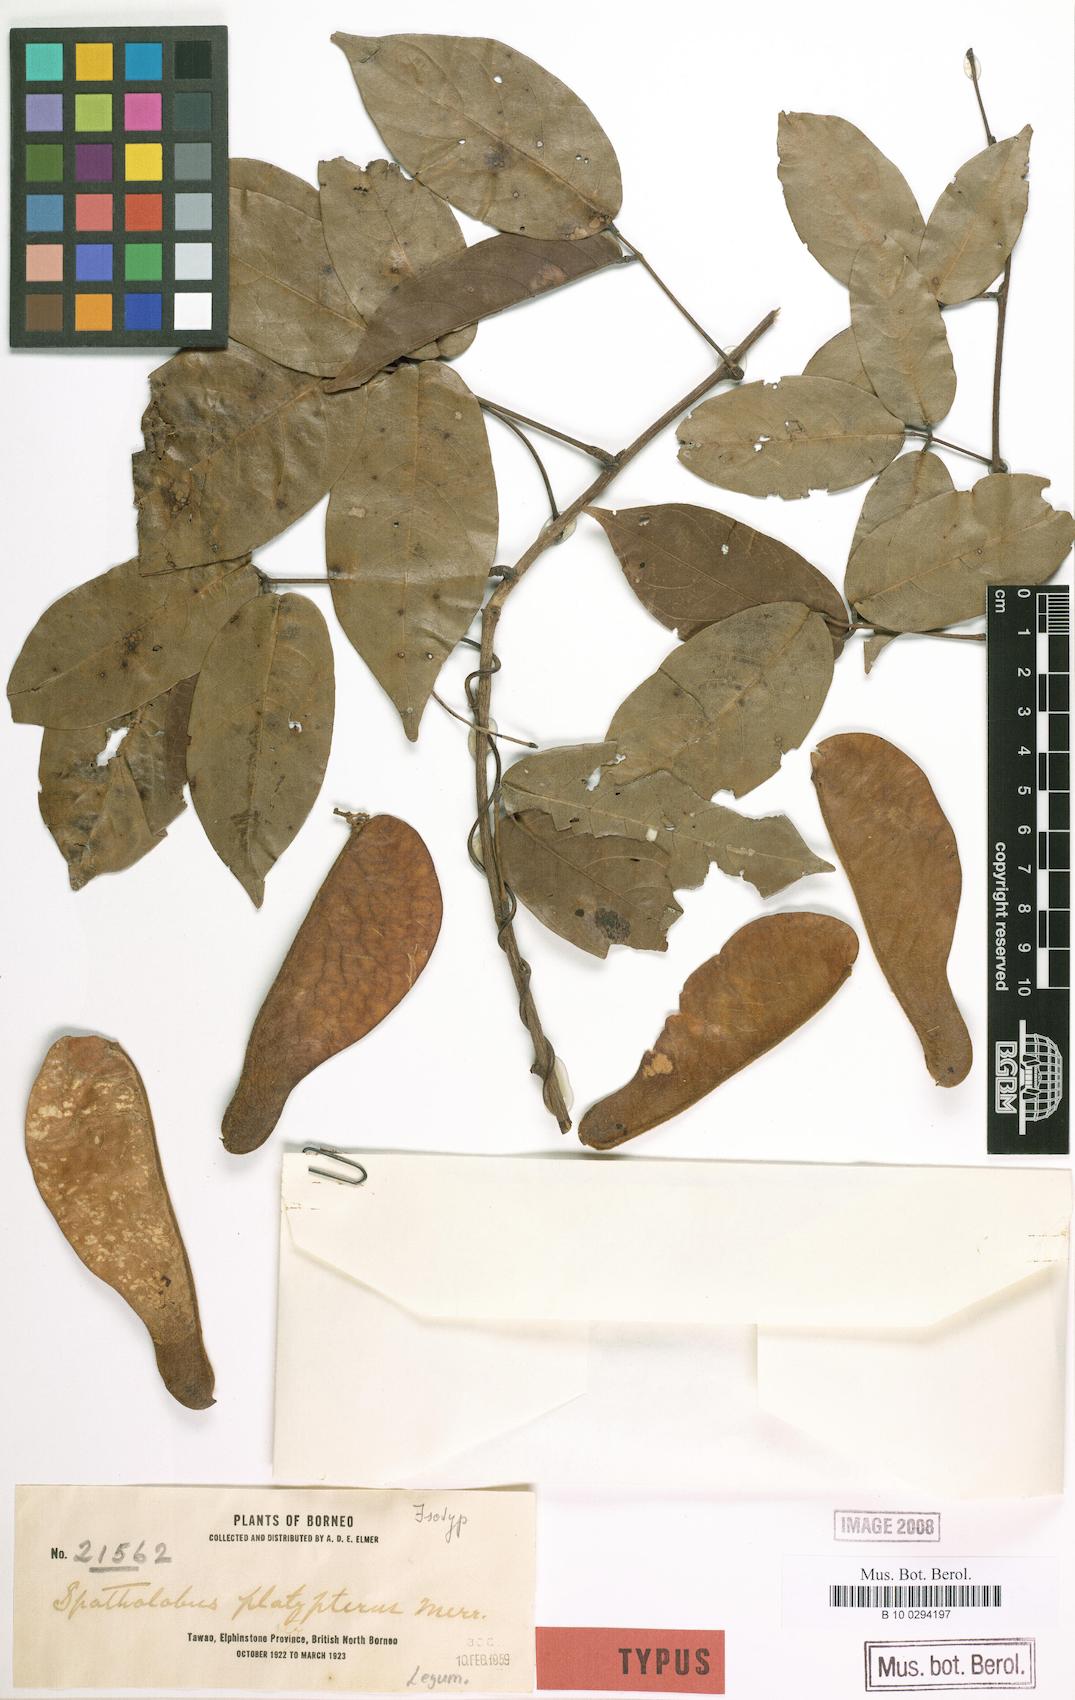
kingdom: Plantae
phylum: Tracheophyta
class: Magnoliopsida
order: Fabales
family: Fabaceae
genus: Spatholobus
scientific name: Spatholobus macropterus
